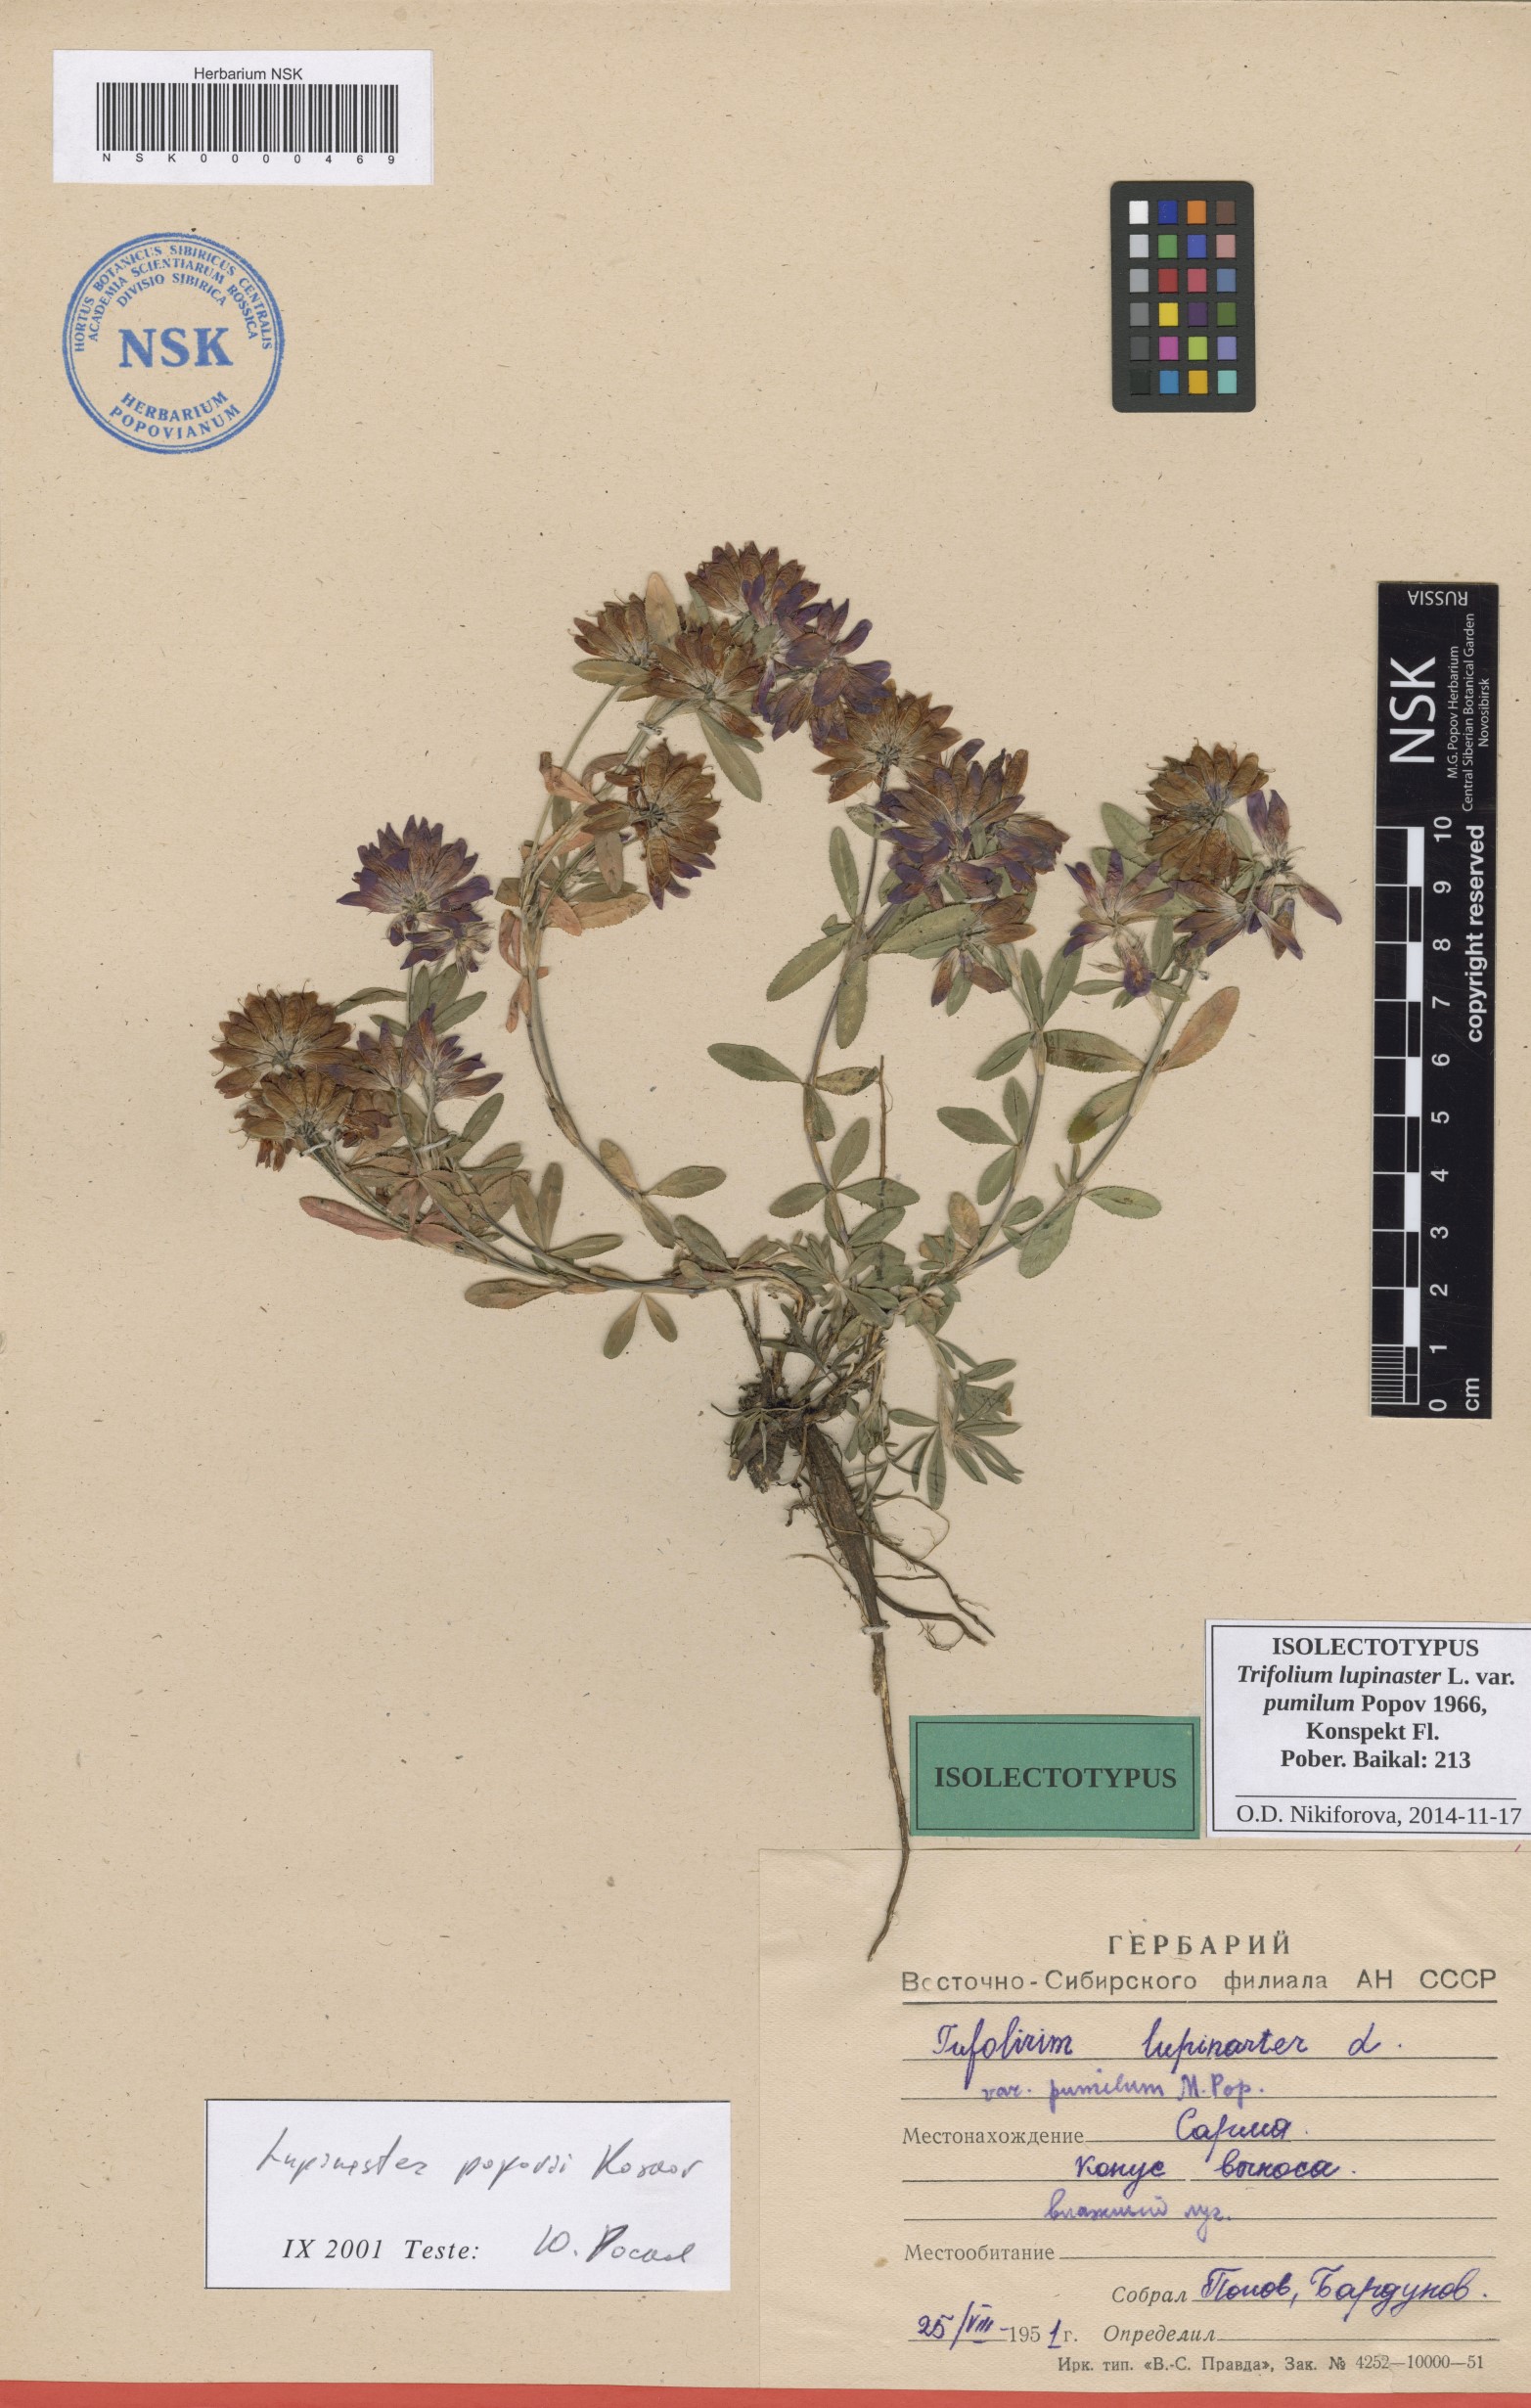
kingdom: Plantae
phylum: Tracheophyta
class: Magnoliopsida
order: Fabales
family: Fabaceae
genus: Trifolium
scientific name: Trifolium lupinaster
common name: Lupine clover
